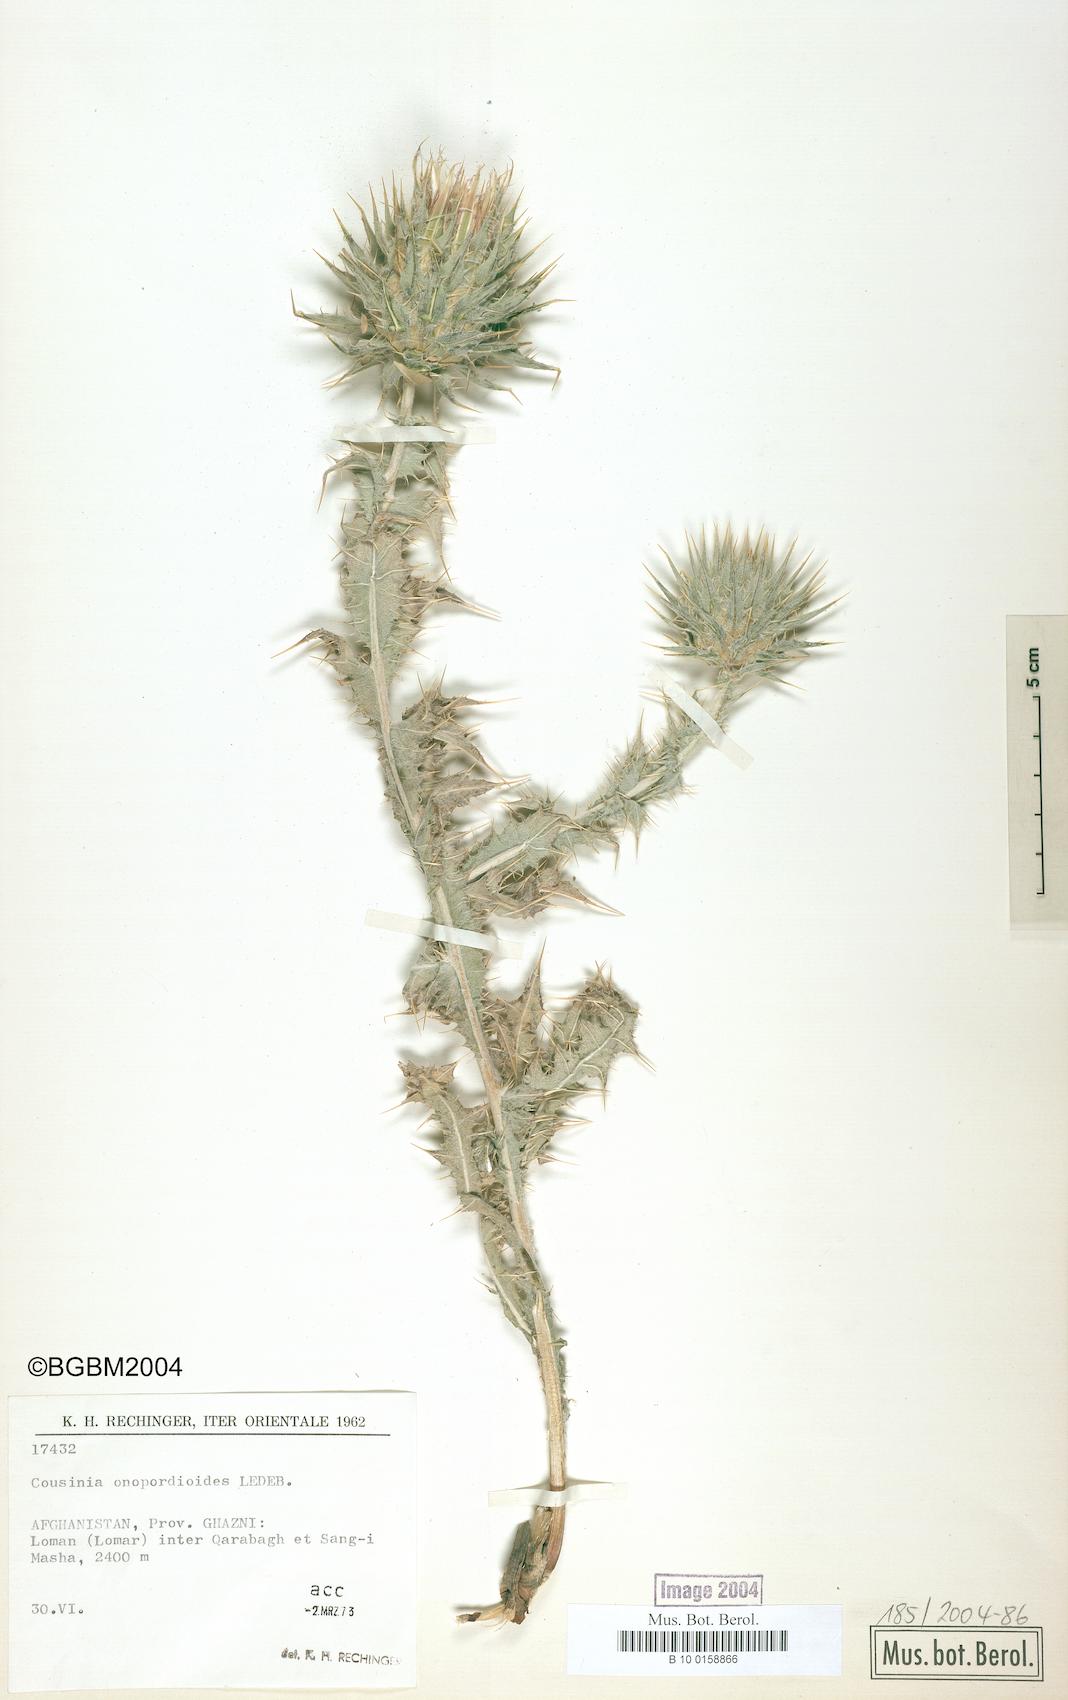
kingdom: Plantae
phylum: Tracheophyta
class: Magnoliopsida
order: Asterales
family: Asteraceae
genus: Cousinia
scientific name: Cousinia onopordioides
